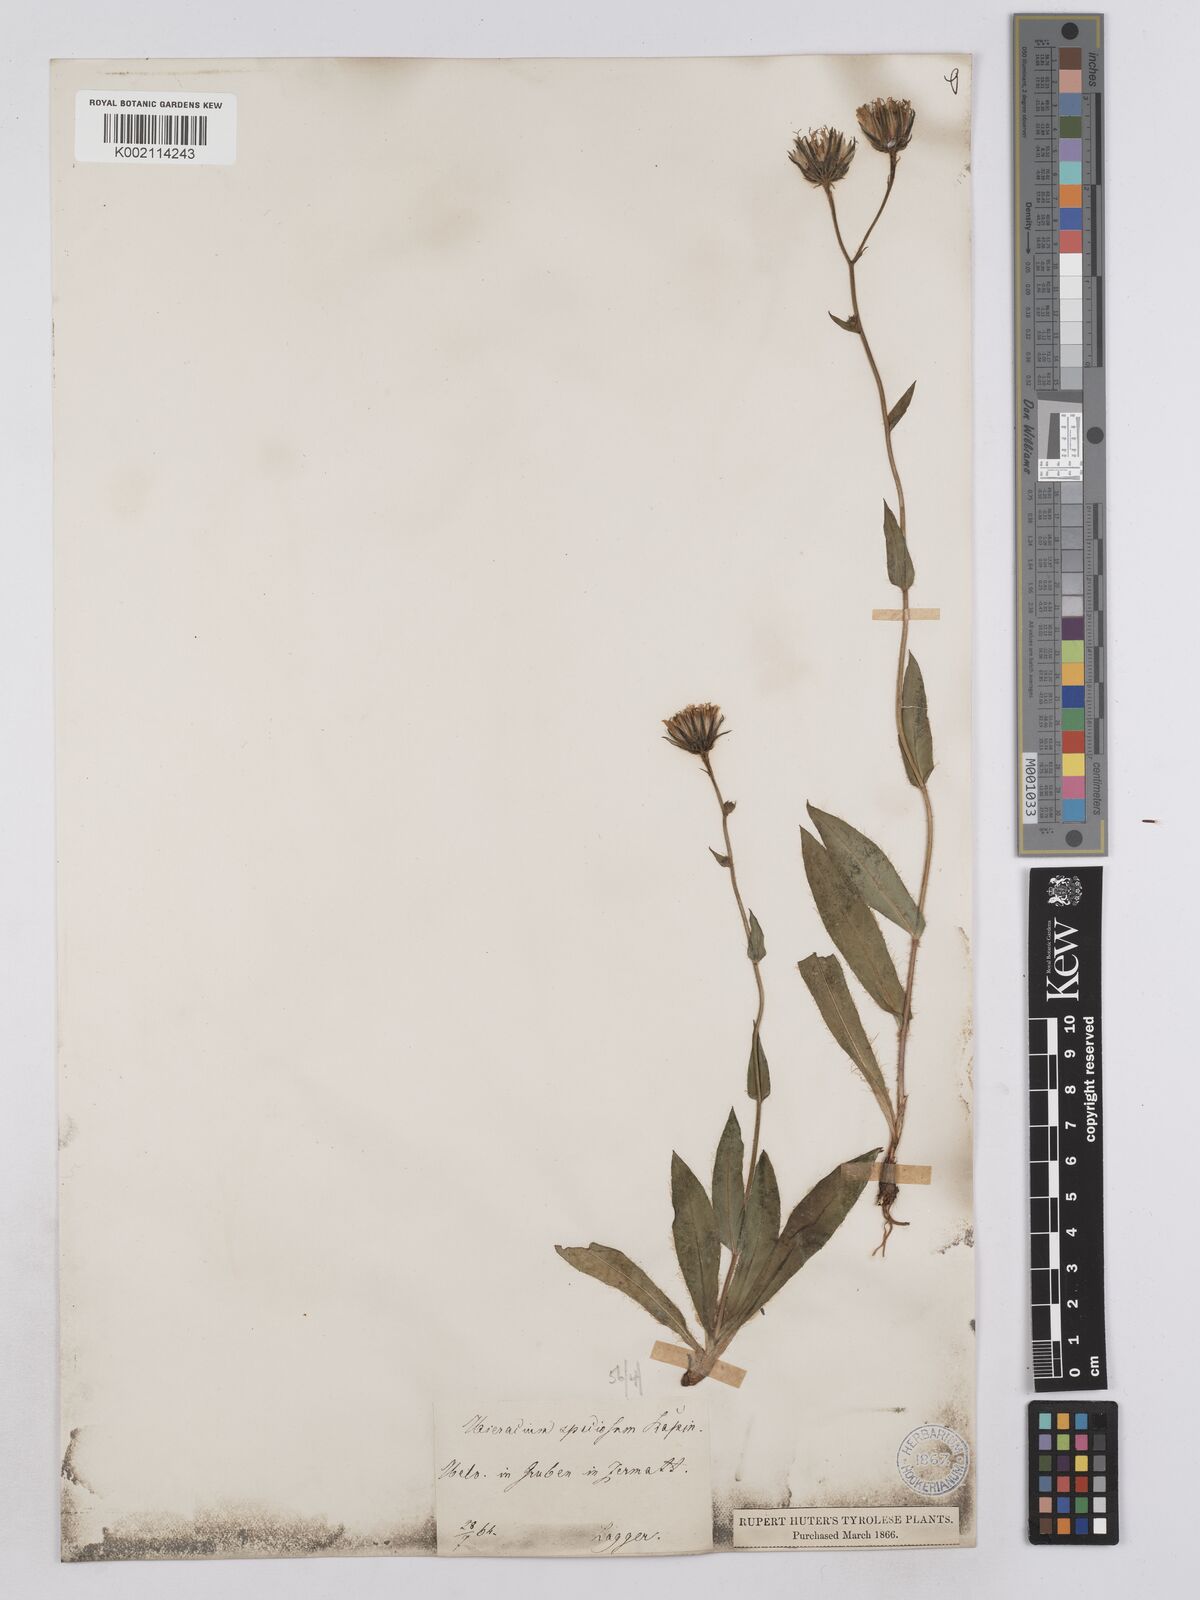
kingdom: Plantae
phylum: Tracheophyta
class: Magnoliopsida
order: Asterales
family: Asteraceae
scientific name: Asteraceae
